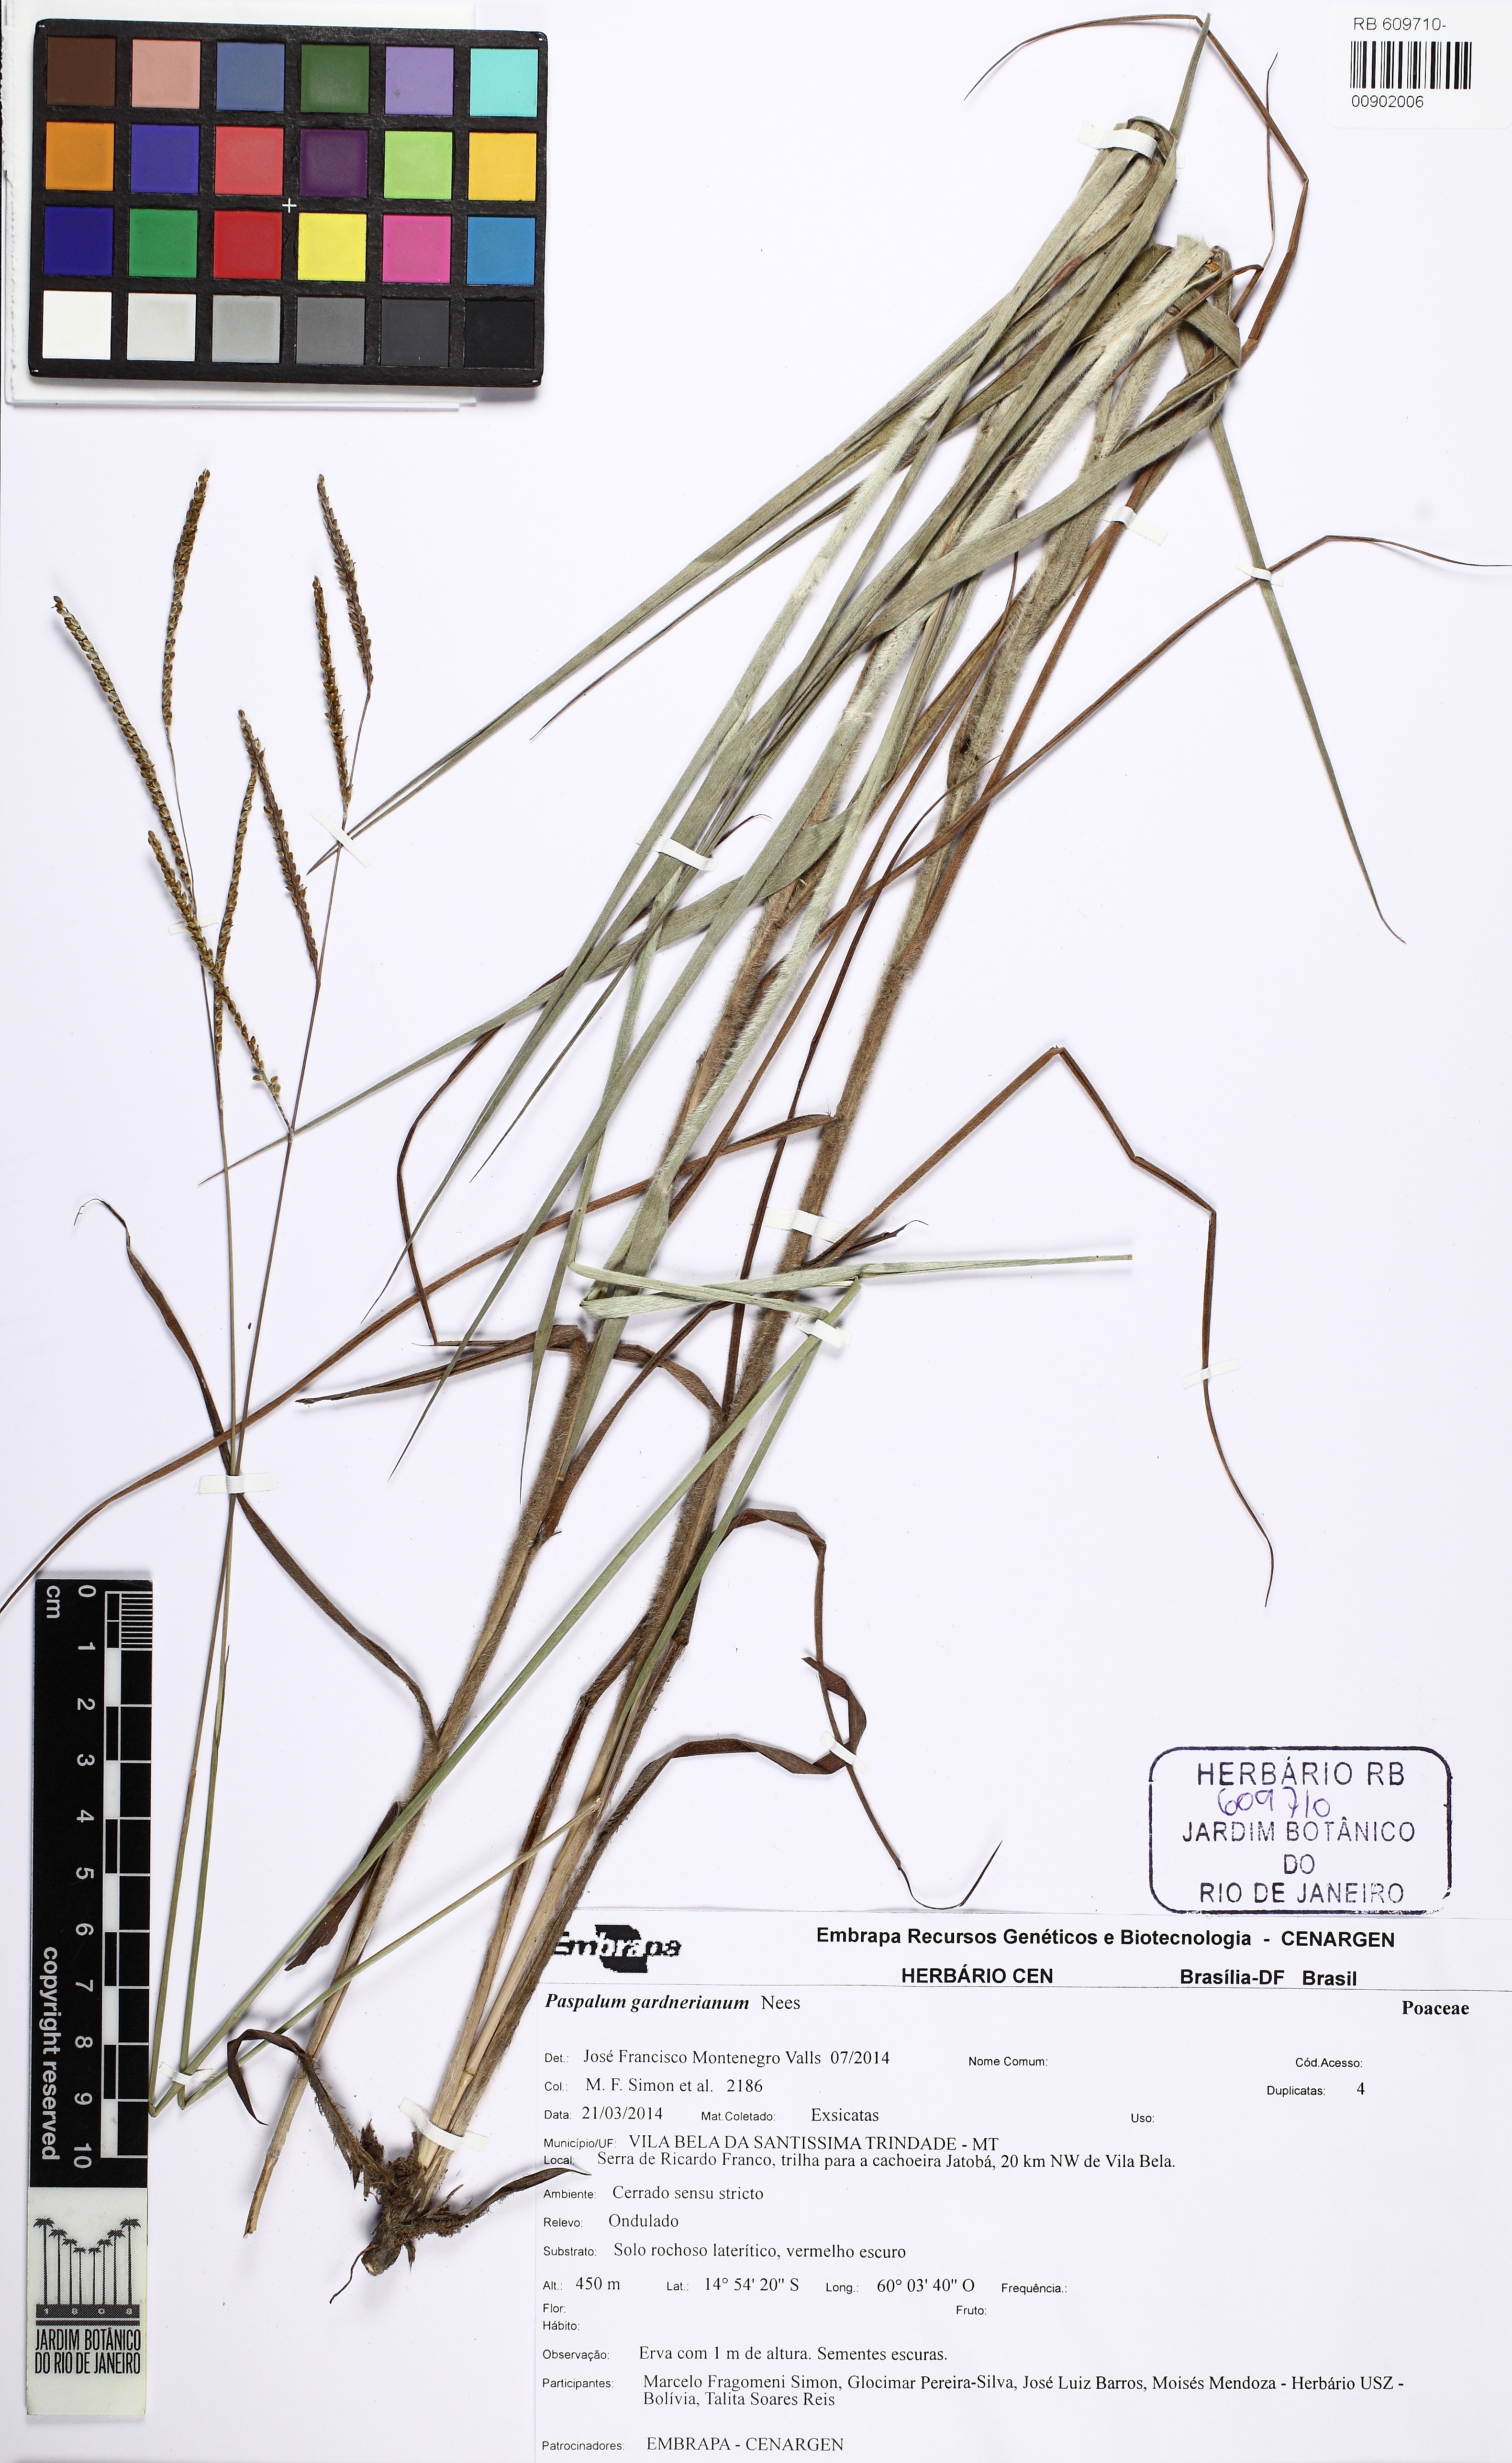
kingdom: Plantae
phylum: Tracheophyta
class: Liliopsida
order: Poales
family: Poaceae
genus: Paspalum
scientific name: Paspalum gardnerianum
